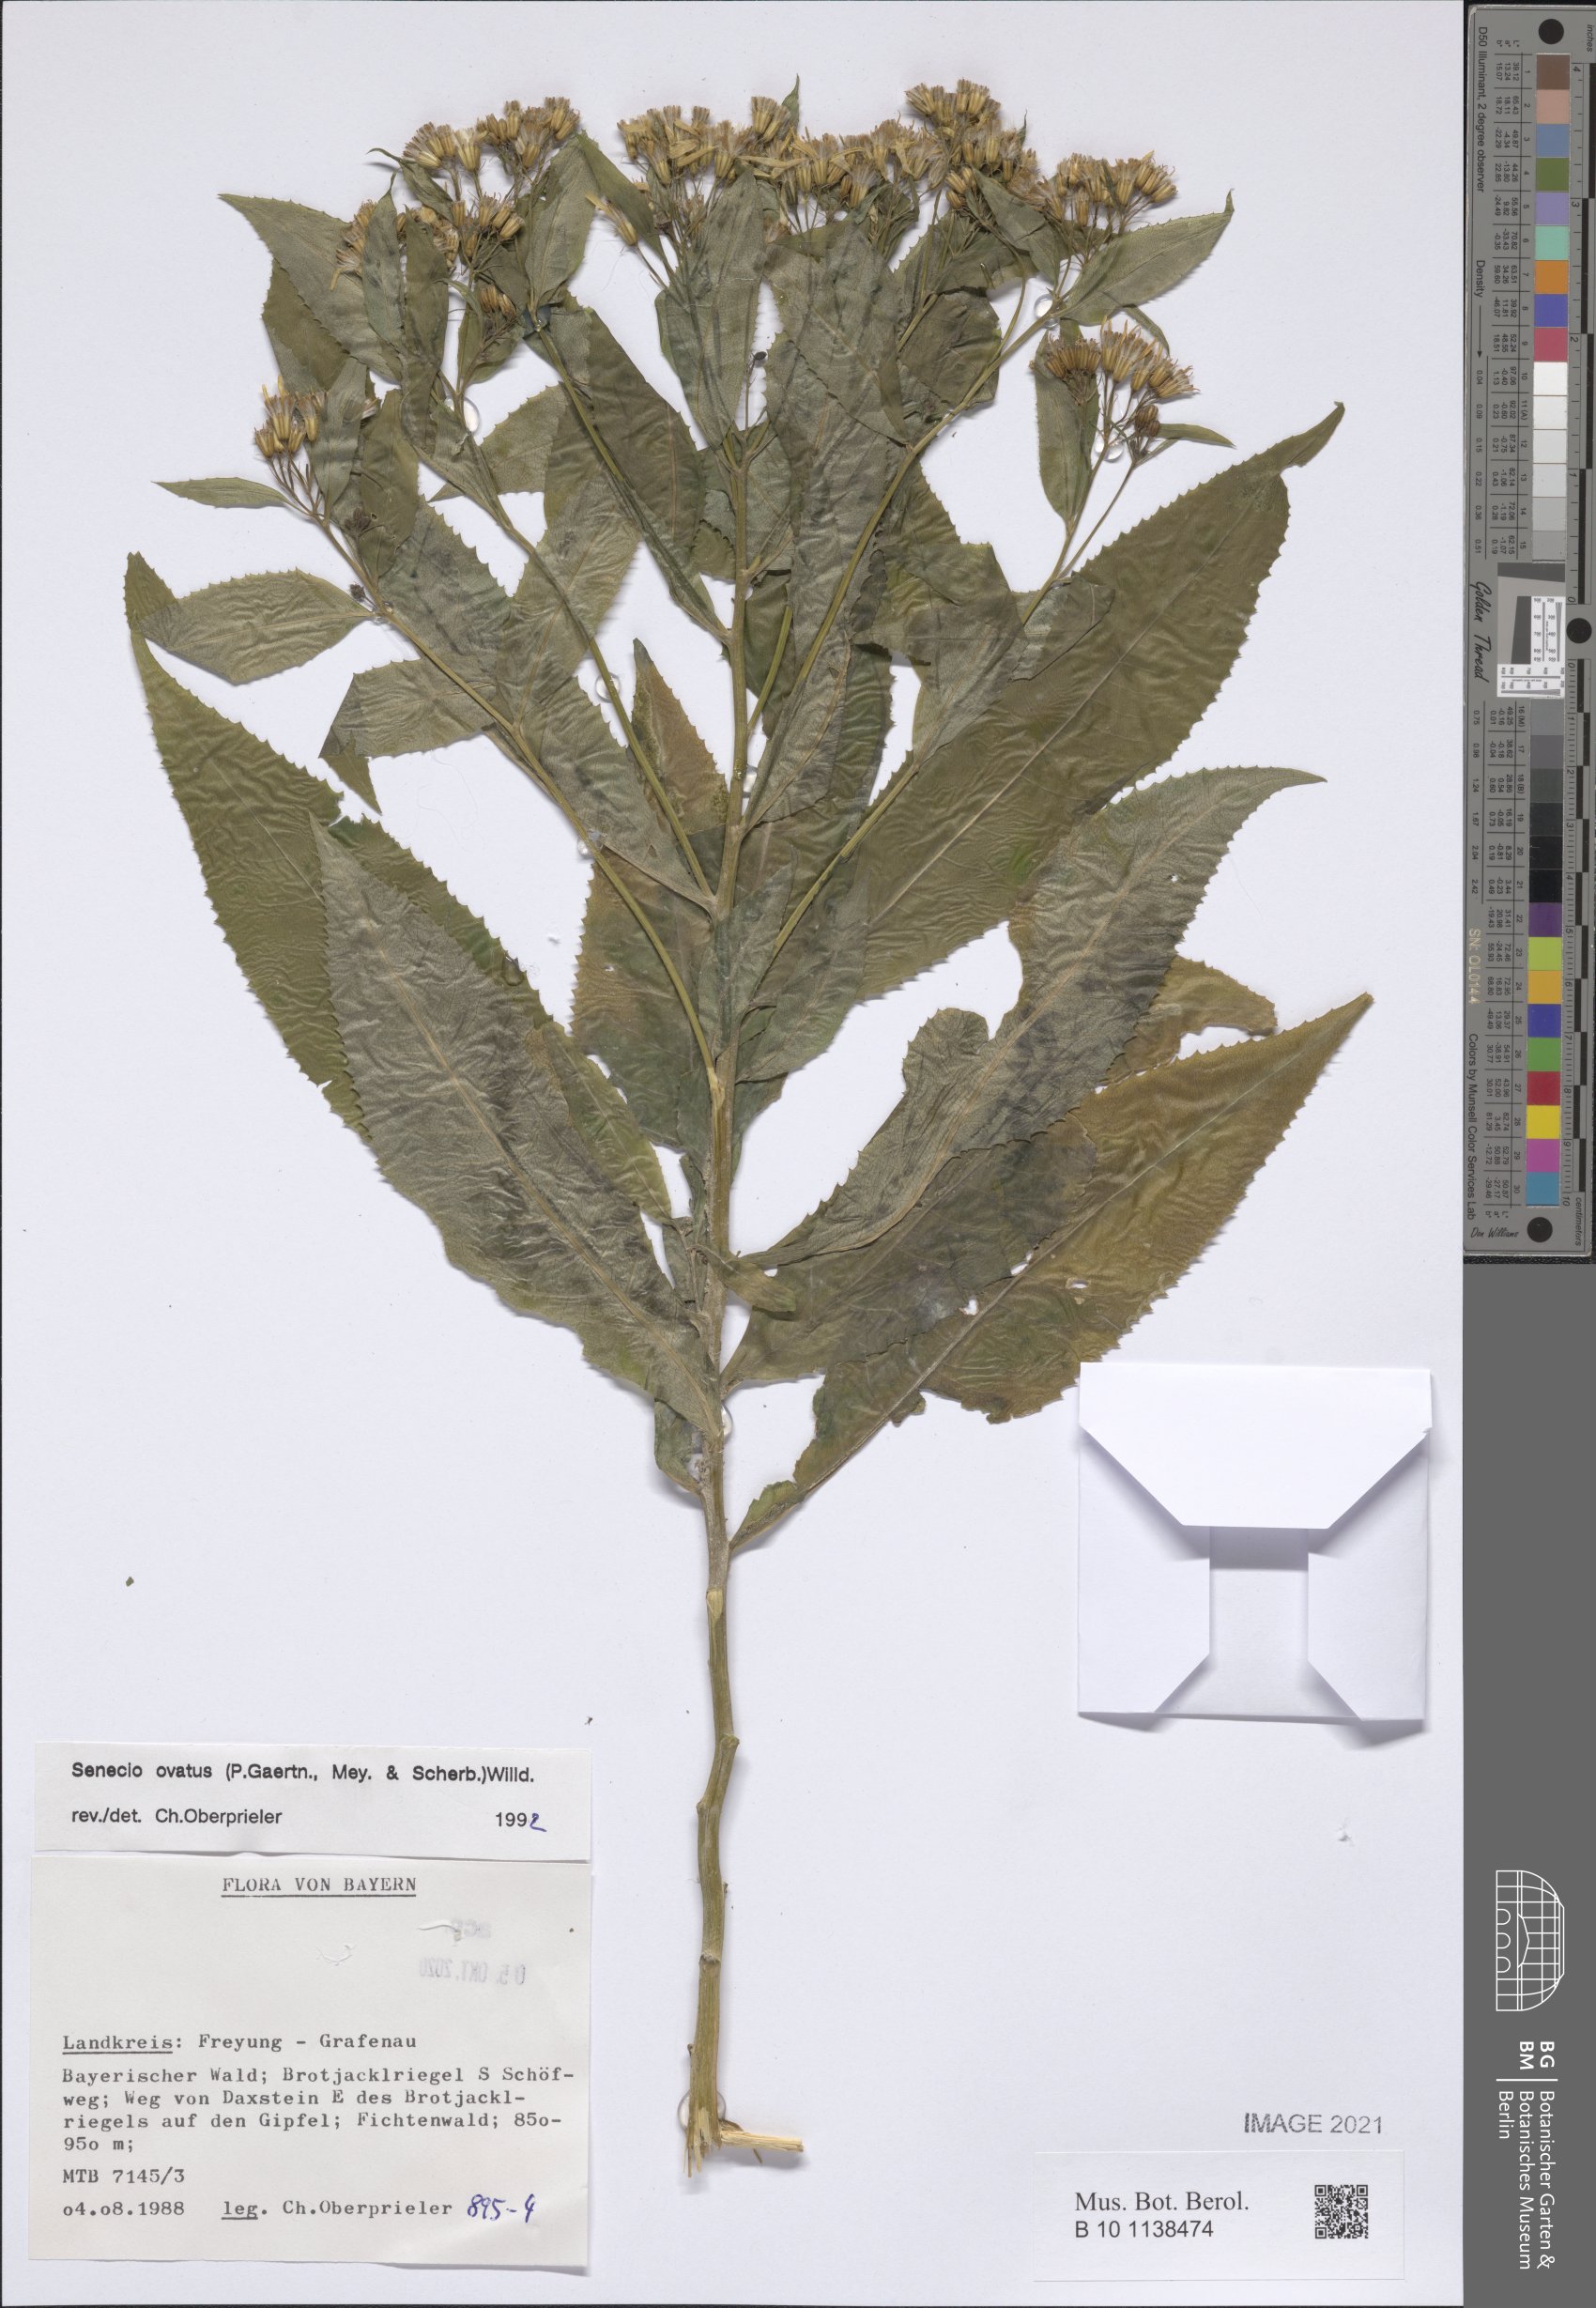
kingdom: Plantae
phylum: Tracheophyta
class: Magnoliopsida
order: Asterales
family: Asteraceae
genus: Senecio
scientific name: Senecio ovatus
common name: Wood ragwort
